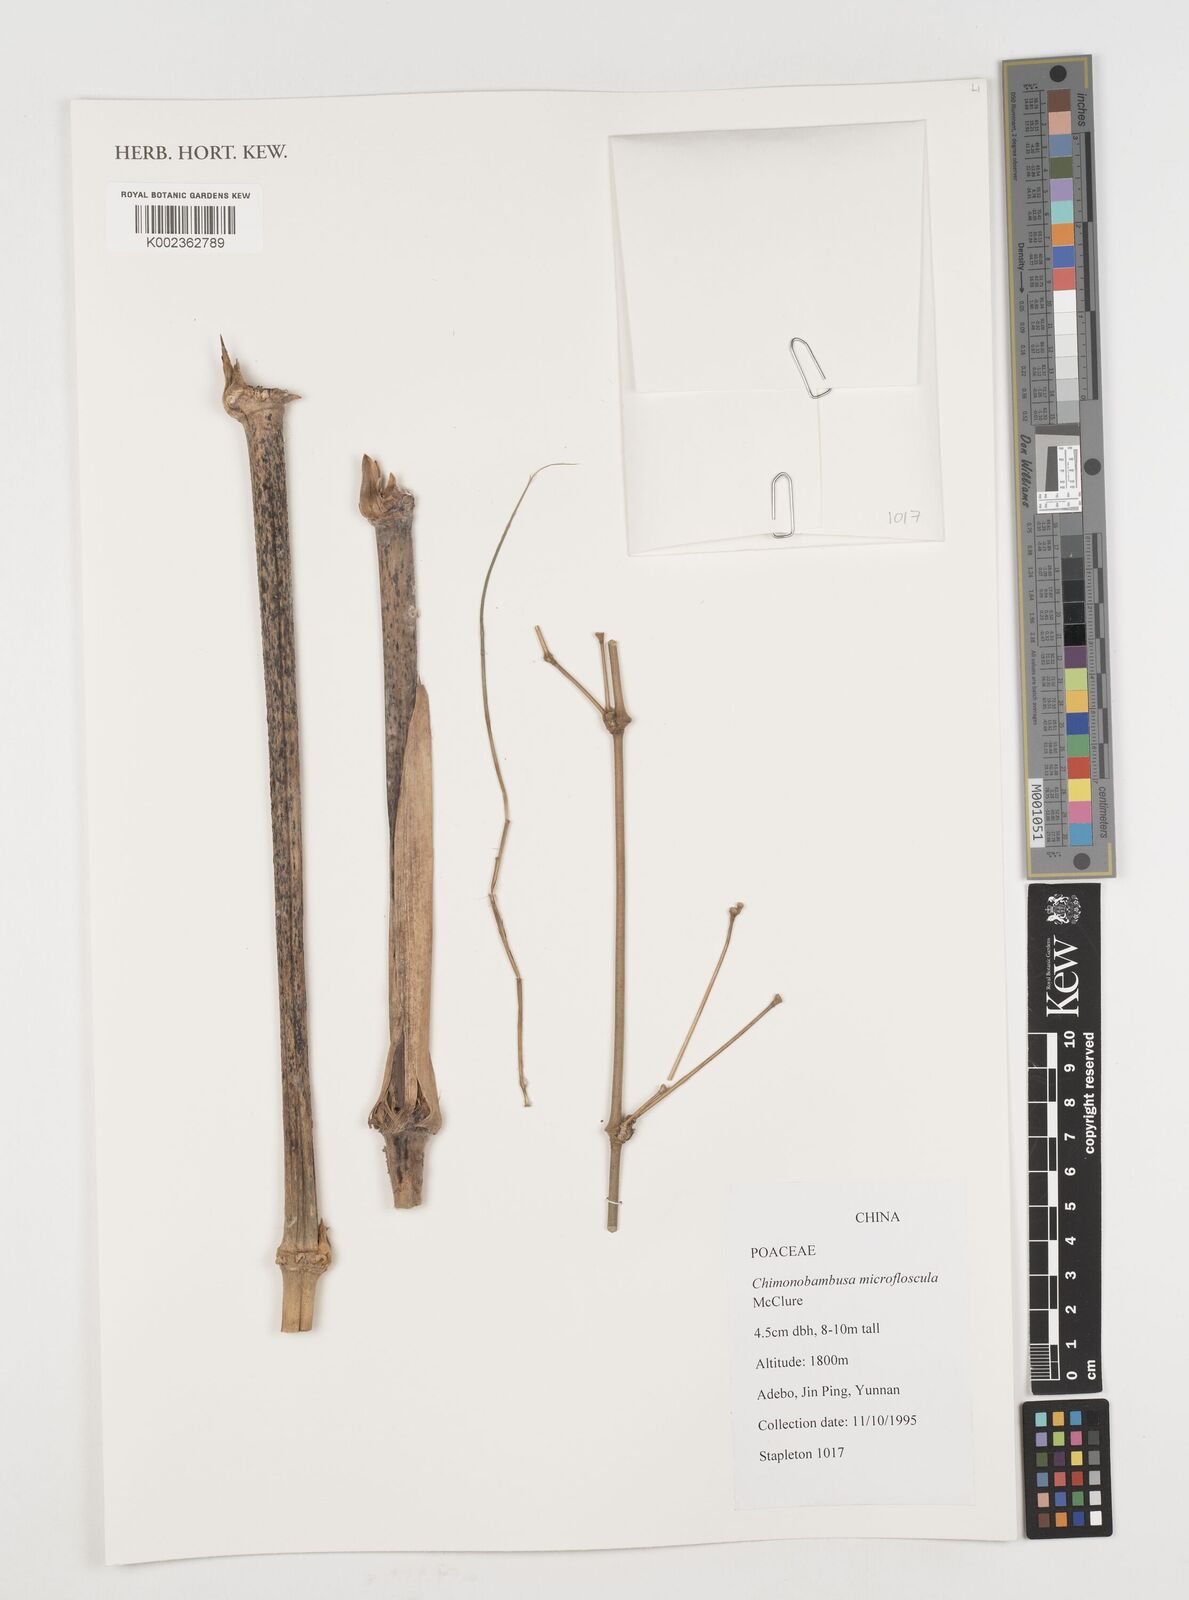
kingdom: Plantae
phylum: Tracheophyta
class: Liliopsida
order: Poales
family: Poaceae
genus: Chimonobambusa
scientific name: Chimonobambusa microfloscula
